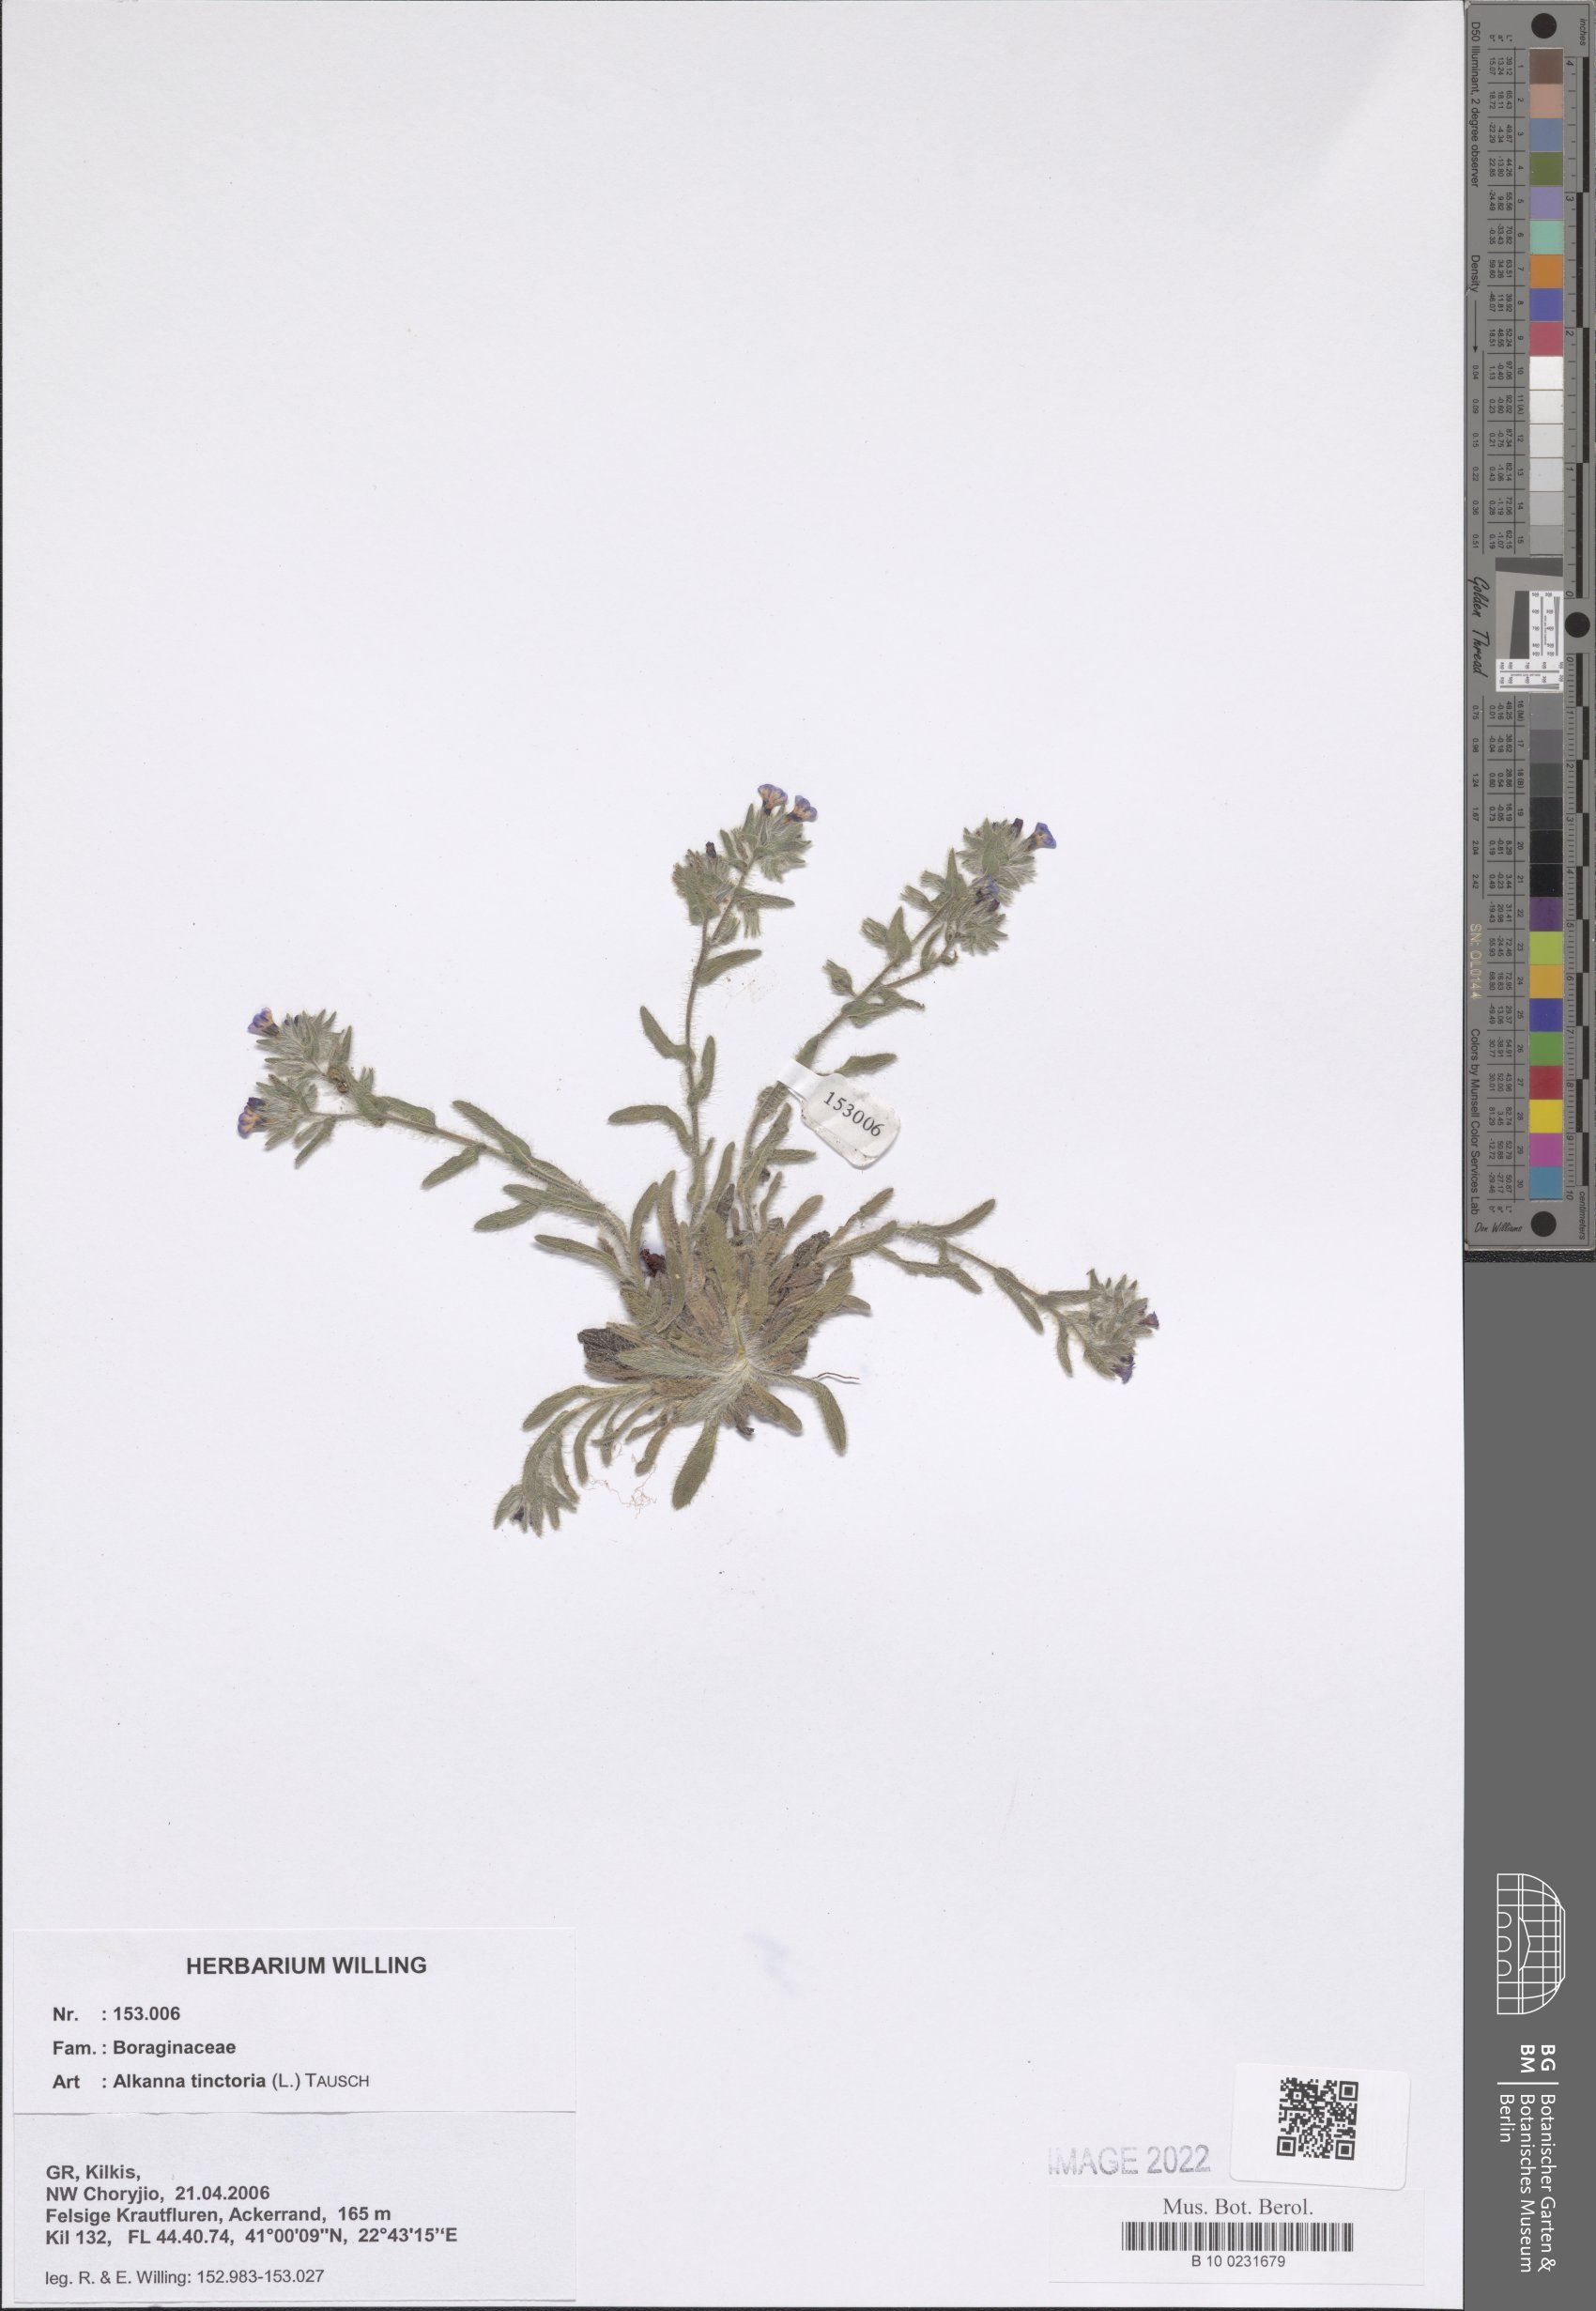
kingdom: Plantae
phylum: Tracheophyta
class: Magnoliopsida
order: Boraginales
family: Boraginaceae
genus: Alkanna
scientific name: Alkanna tinctoria
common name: Dyer's-alkanet
